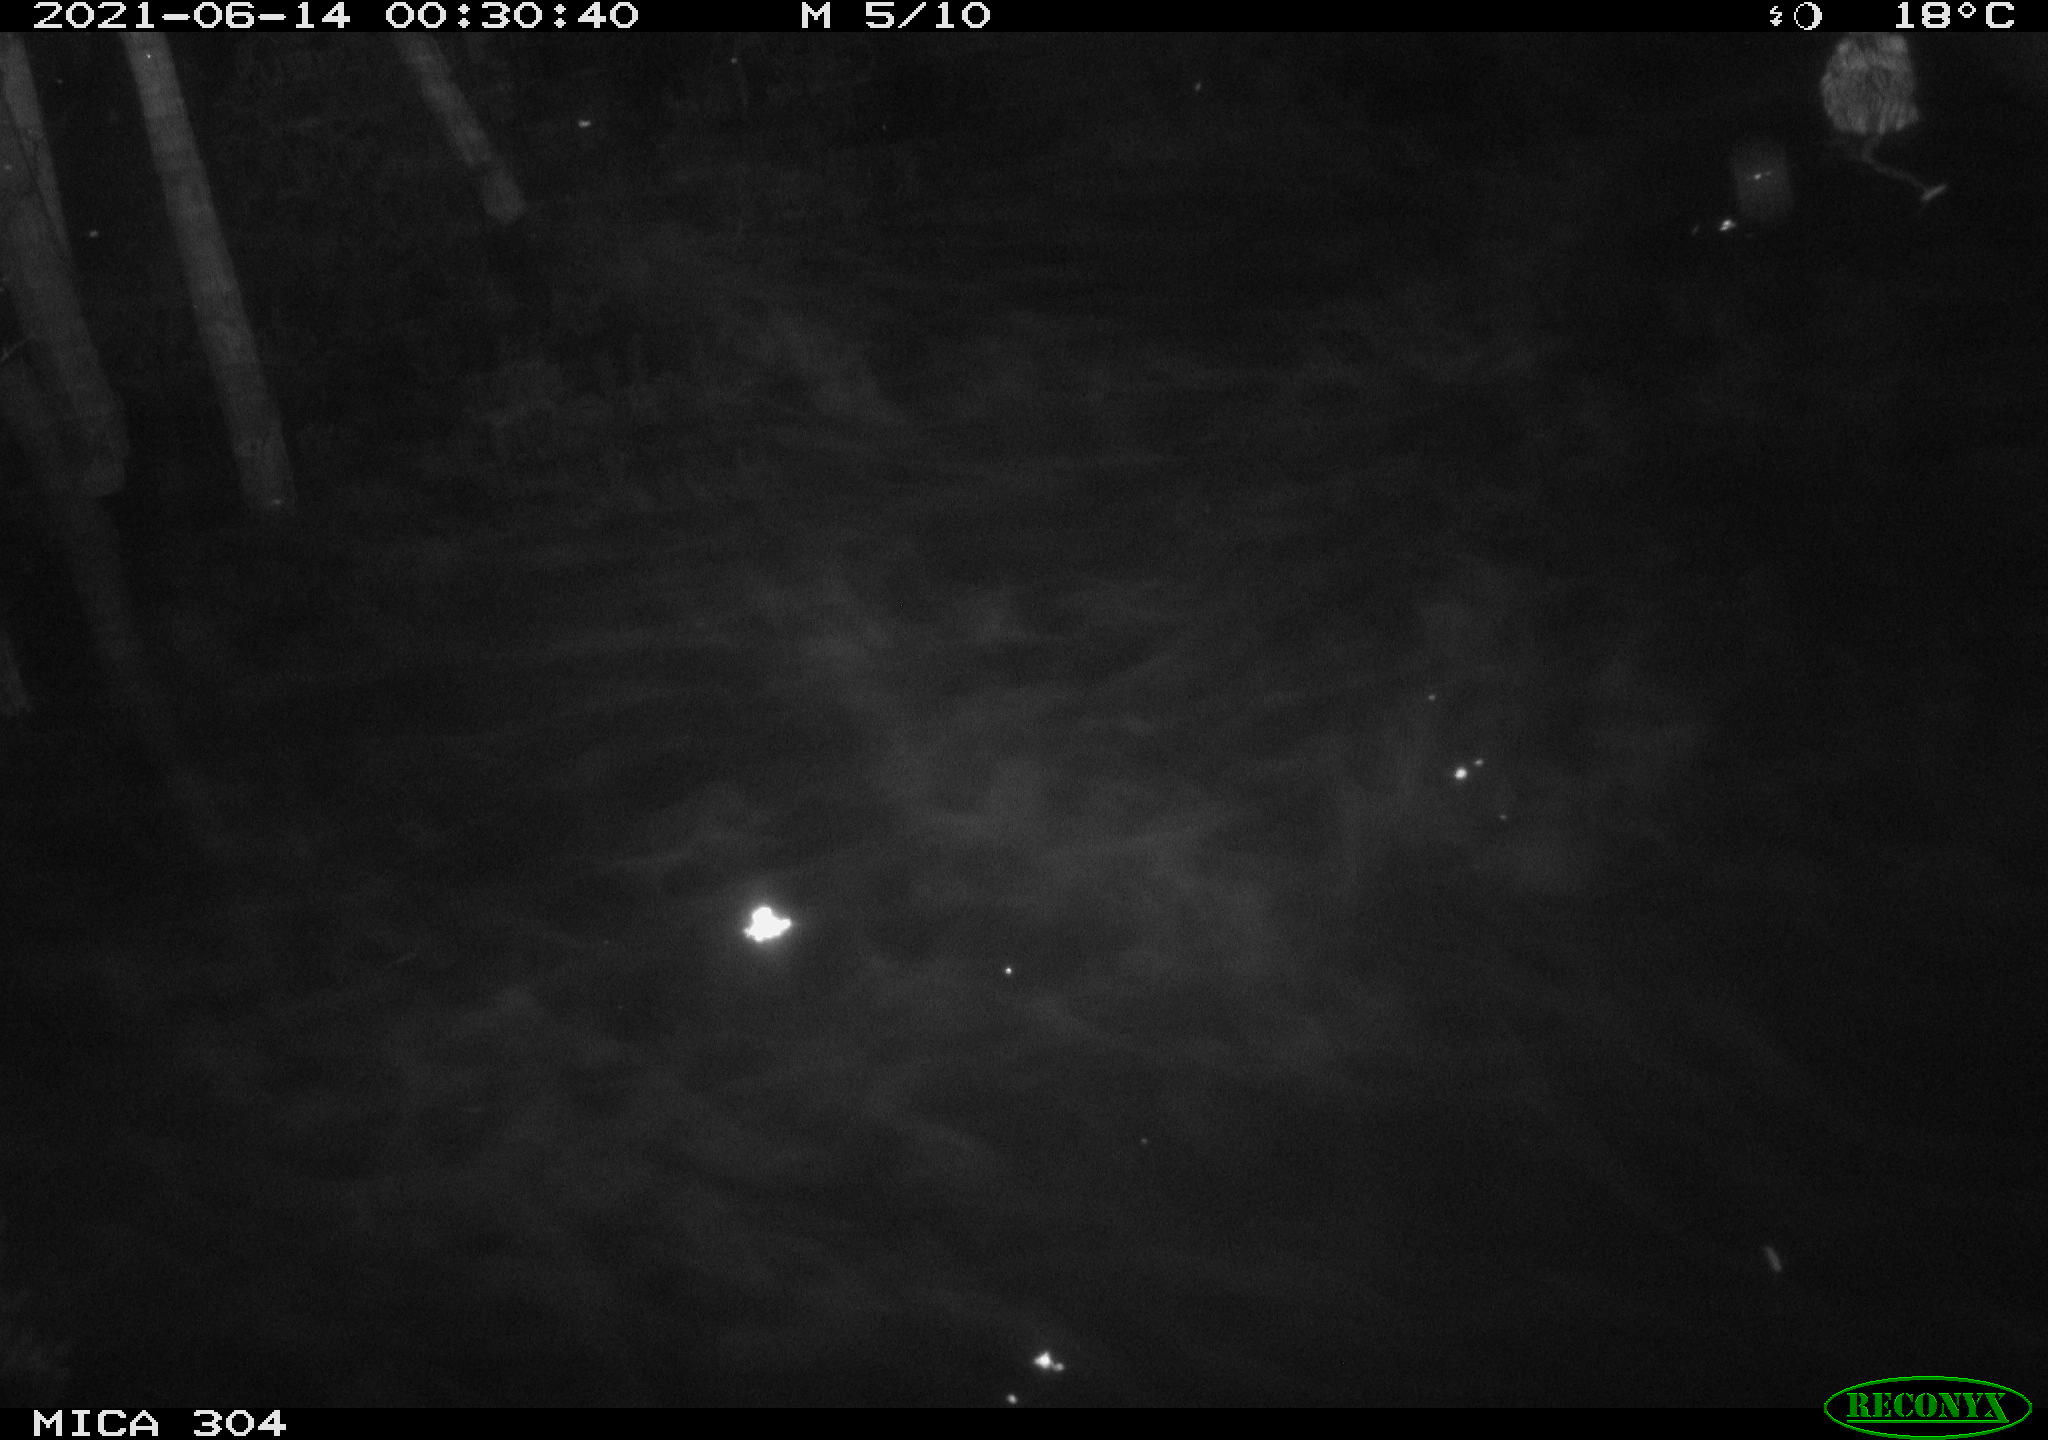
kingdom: Animalia
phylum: Chordata
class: Mammalia
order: Rodentia
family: Cricetidae
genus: Ondatra
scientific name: Ondatra zibethicus
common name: Muskrat
